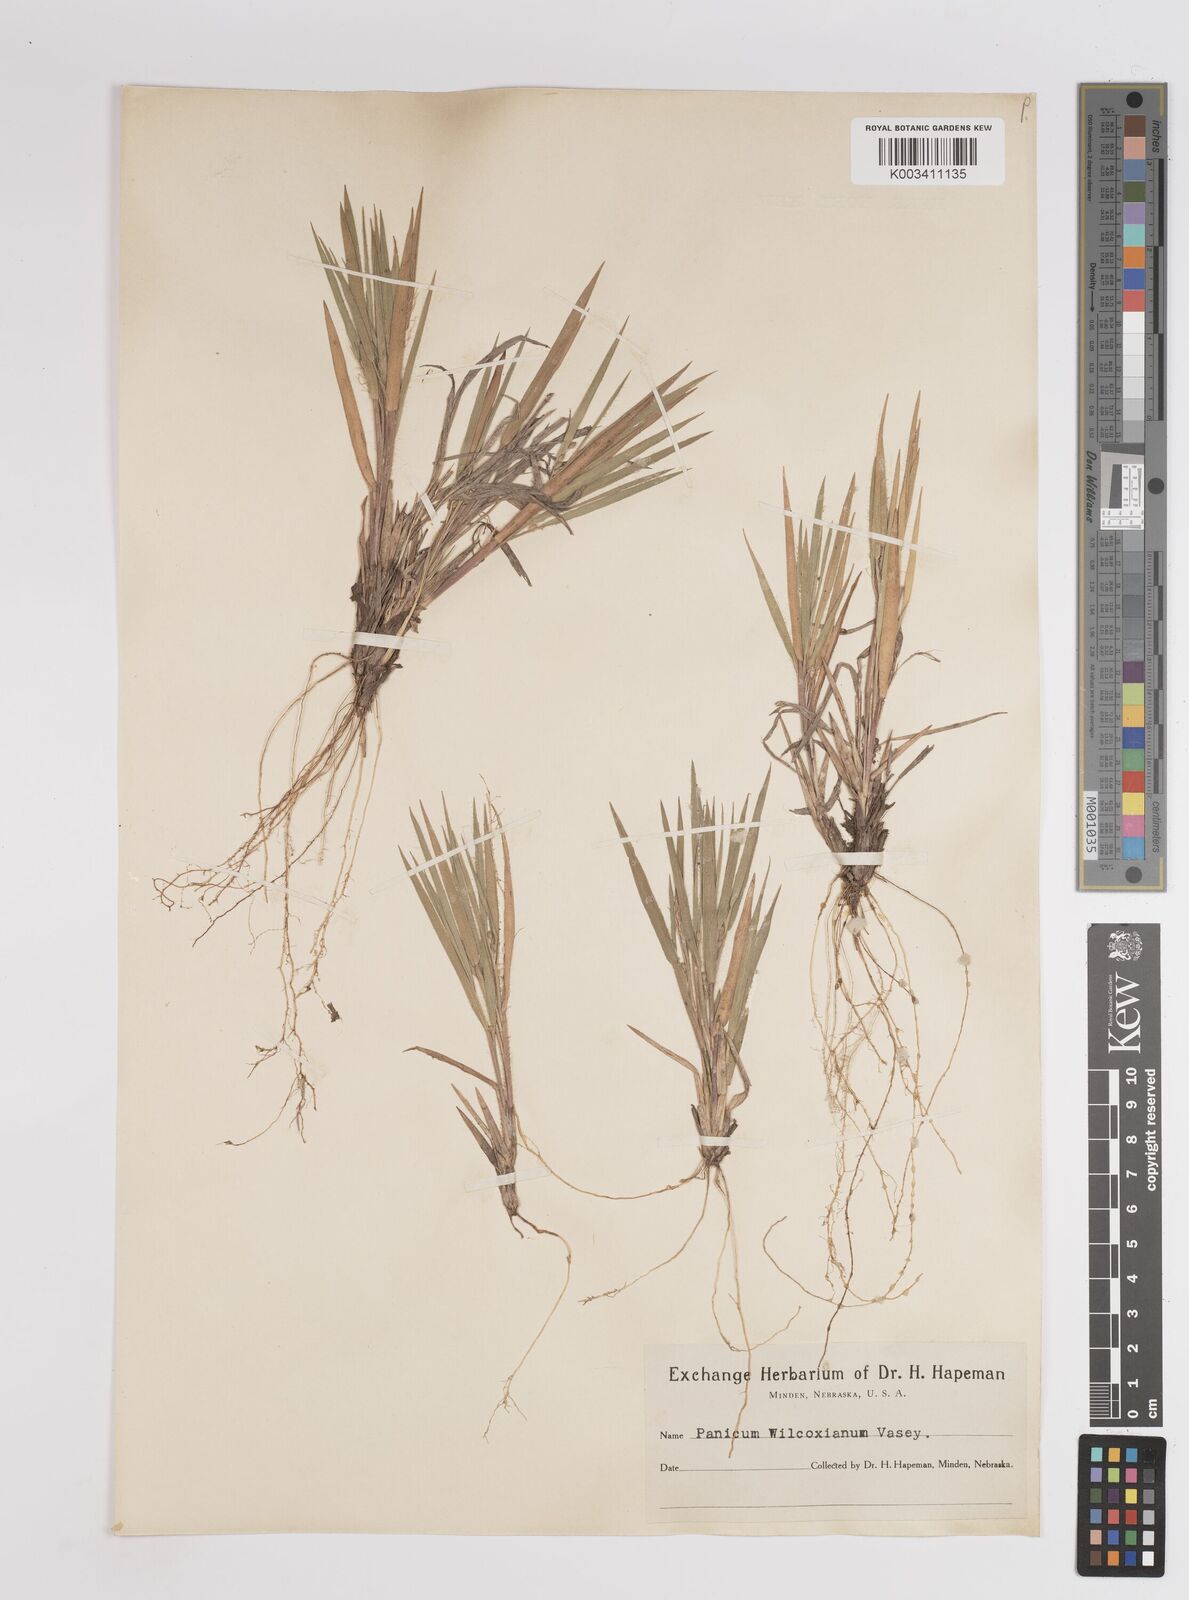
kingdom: Plantae
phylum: Tracheophyta
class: Liliopsida
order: Poales
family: Poaceae
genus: Dichanthelium
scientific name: Dichanthelium wilcoxianum
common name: Wilcox's panicgrass
